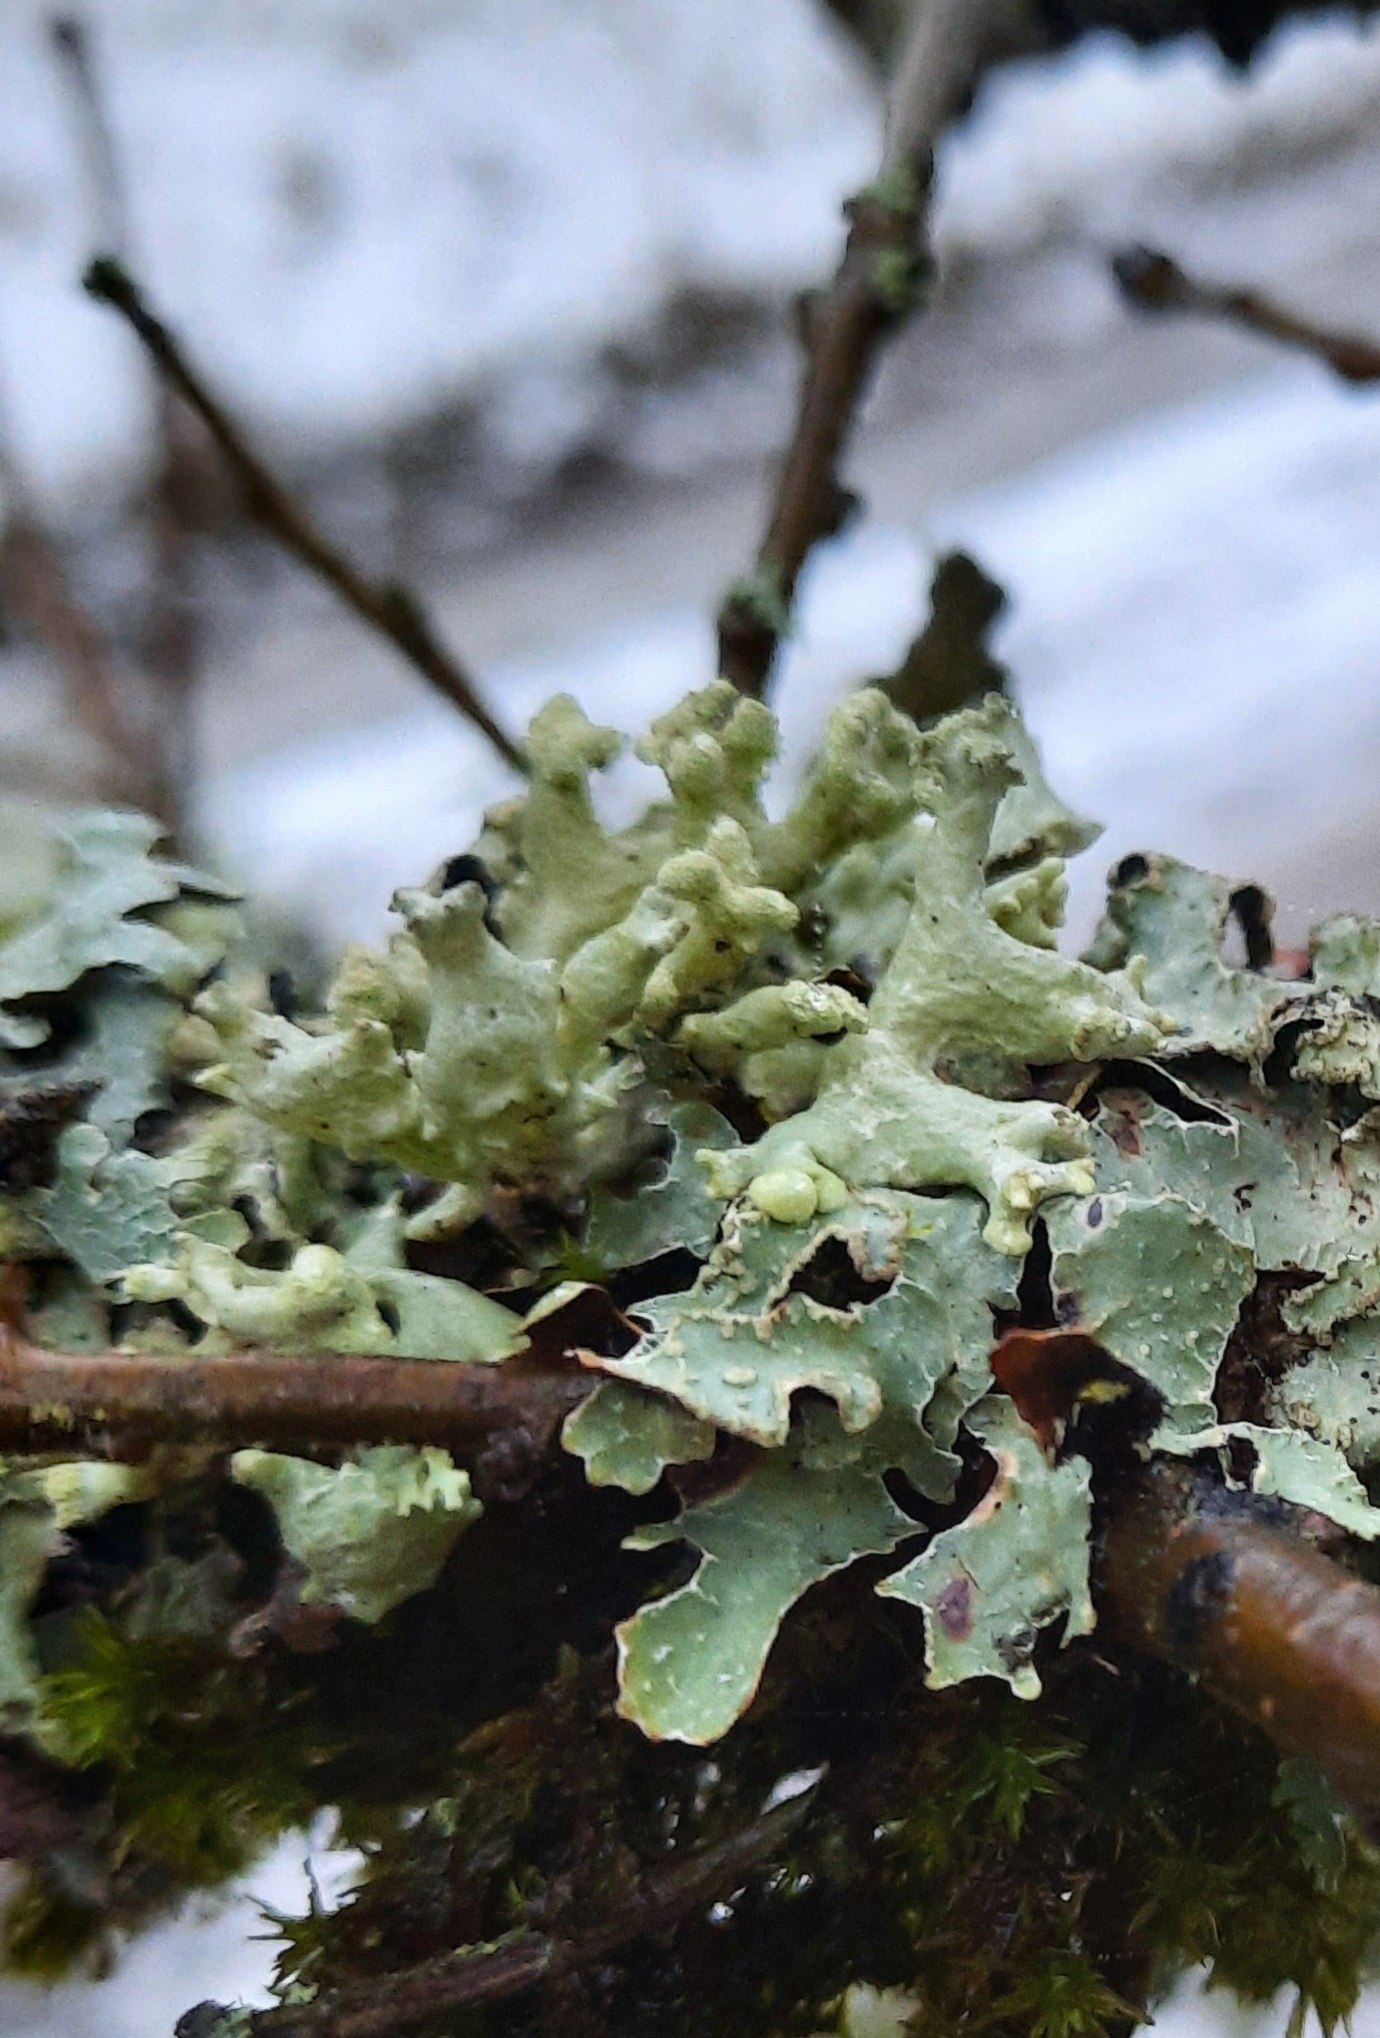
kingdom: Fungi
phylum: Ascomycota
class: Lecanoromycetes
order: Lecanorales
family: Parmeliaceae
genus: Hypogymnia
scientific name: Hypogymnia tubulosa
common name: finger-kvistlav
